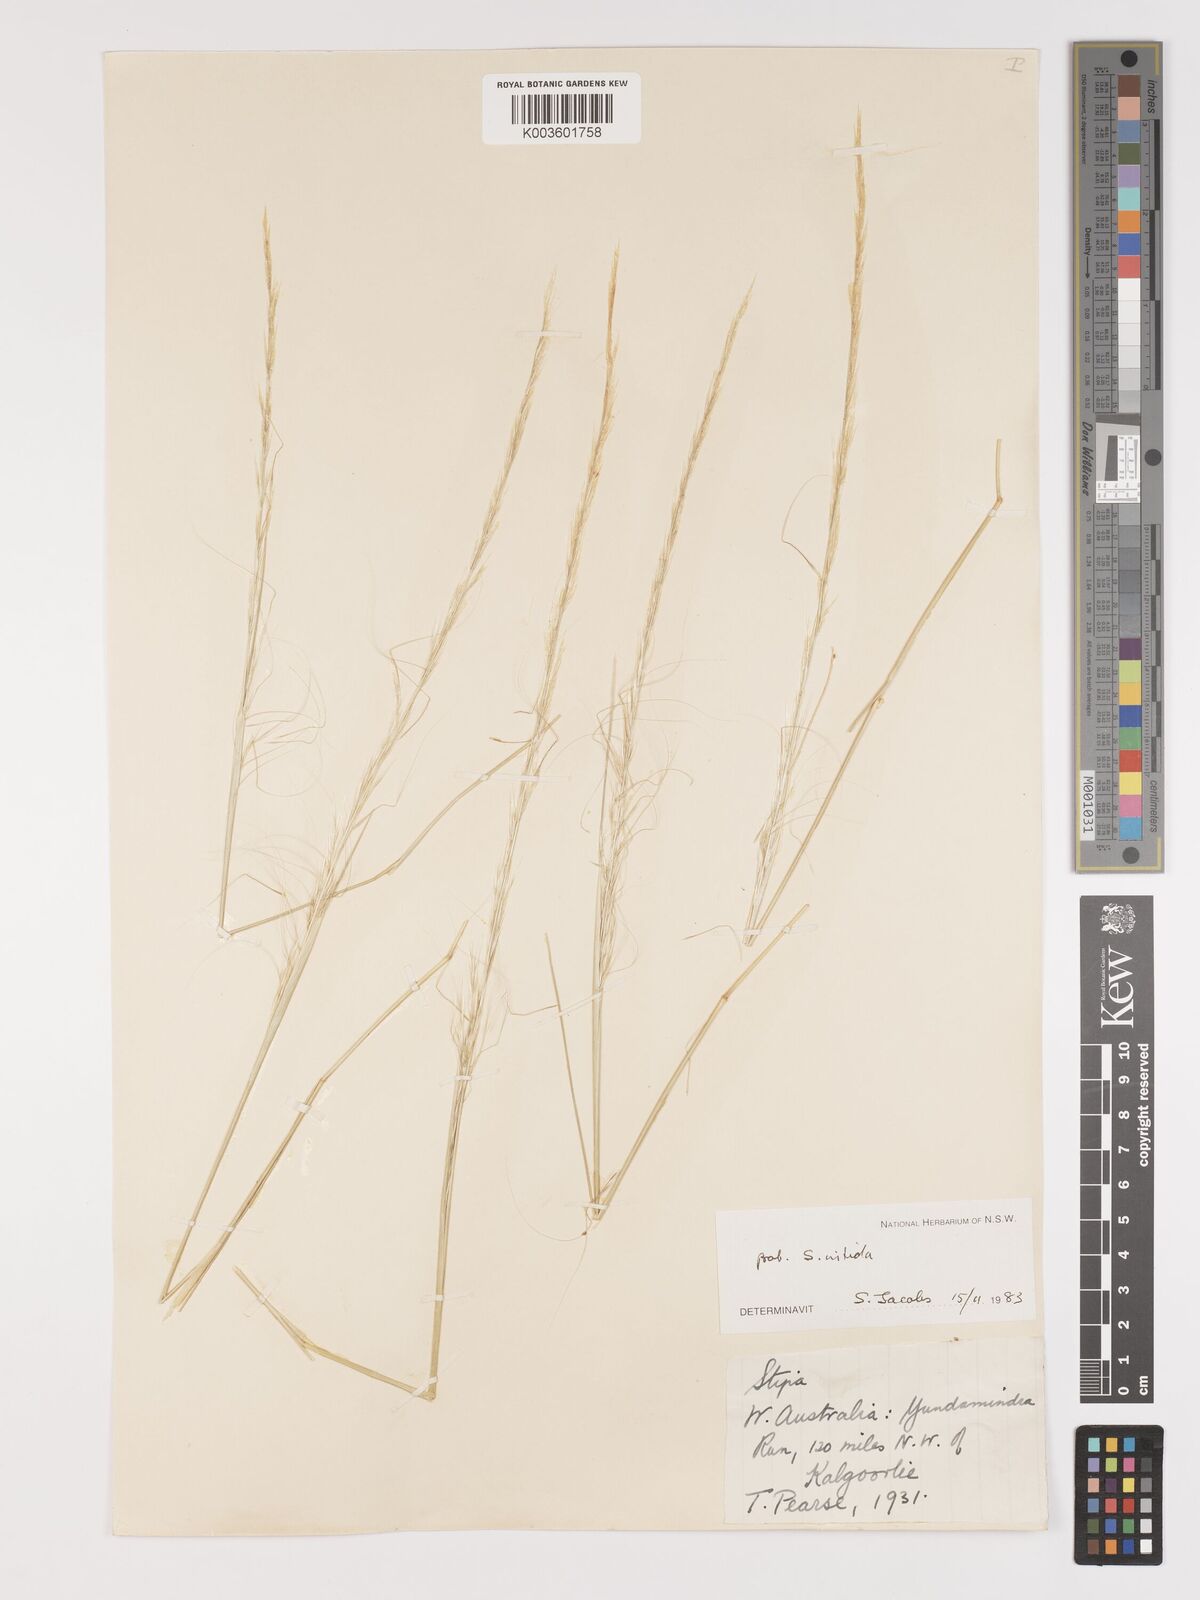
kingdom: Plantae
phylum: Tracheophyta
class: Liliopsida
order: Poales
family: Poaceae
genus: Austrostipa
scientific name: Austrostipa nitida
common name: Balcarra grass
